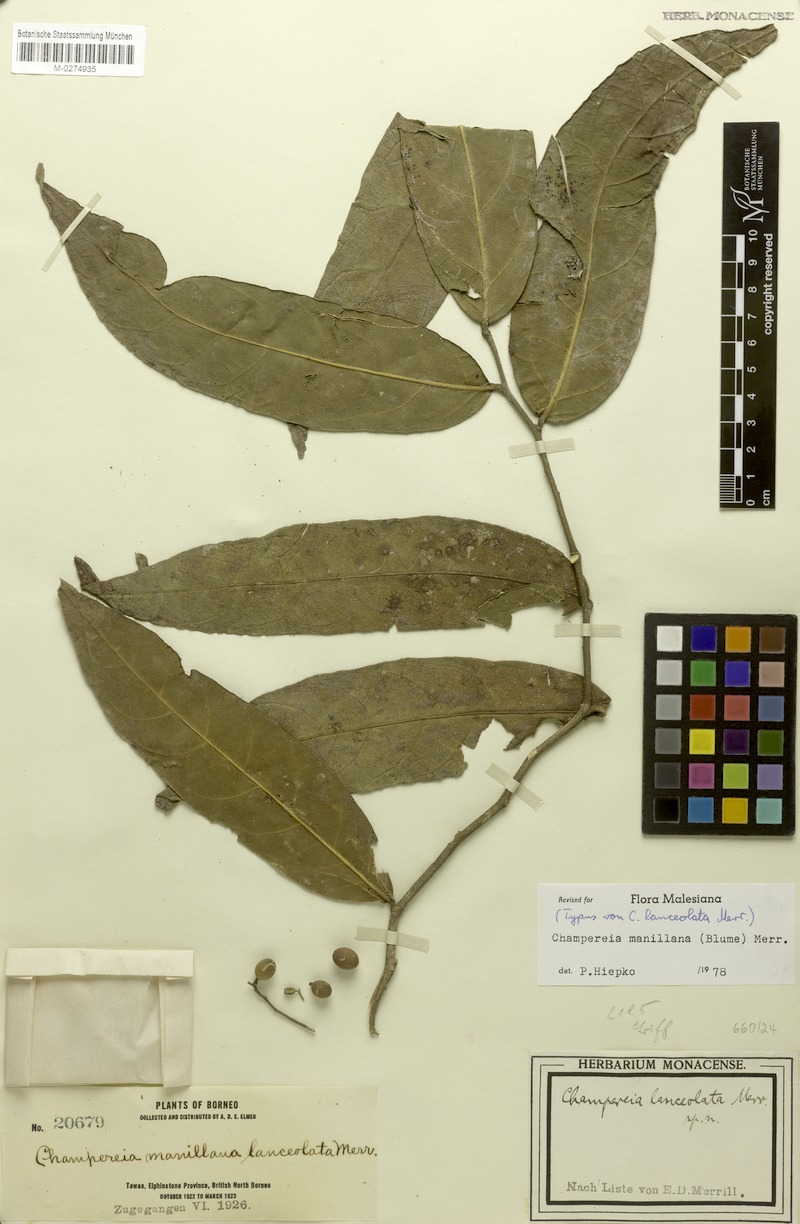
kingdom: Plantae
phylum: Tracheophyta
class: Magnoliopsida
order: Santalales
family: Opiliaceae
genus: Champereia
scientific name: Champereia manillana
